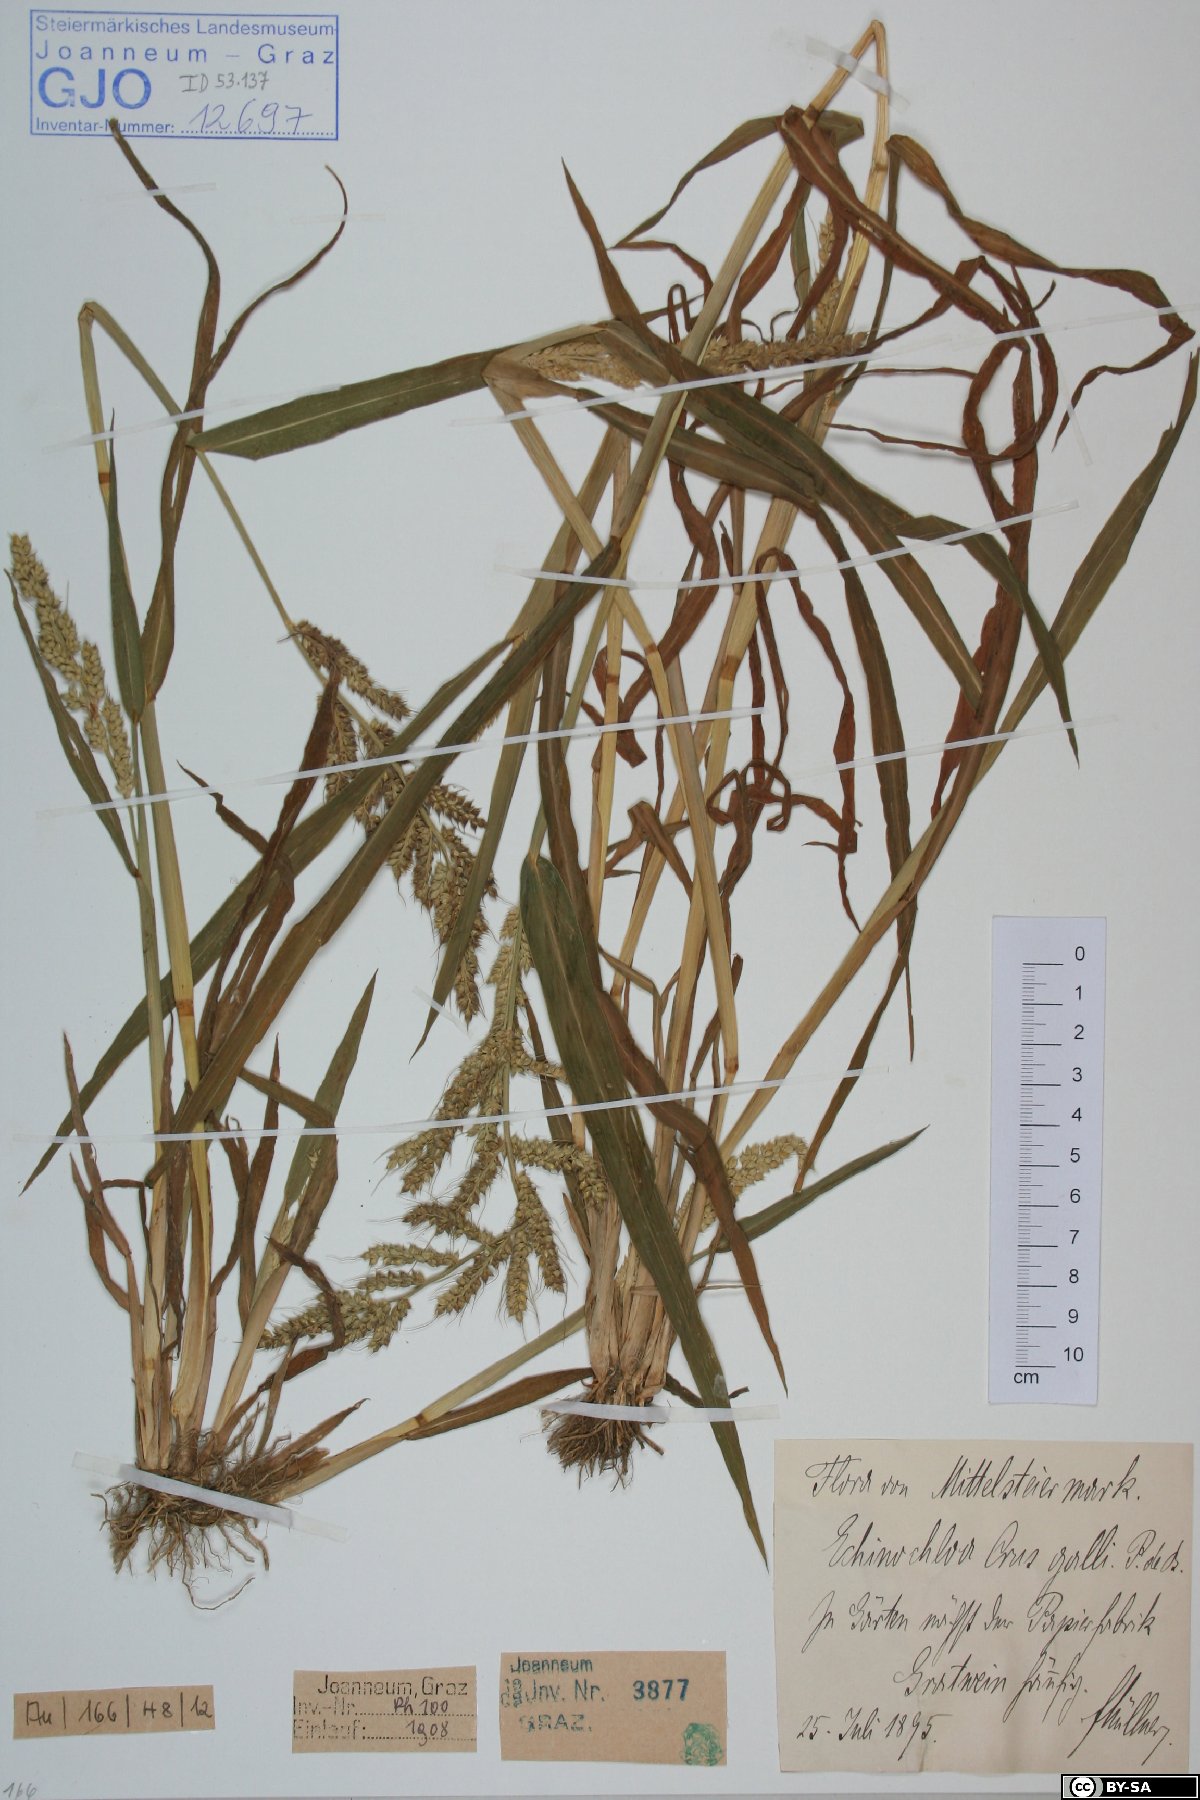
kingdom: Plantae
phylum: Tracheophyta
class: Liliopsida
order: Poales
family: Poaceae
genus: Echinochloa
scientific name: Echinochloa crus-galli
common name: Cockspur
